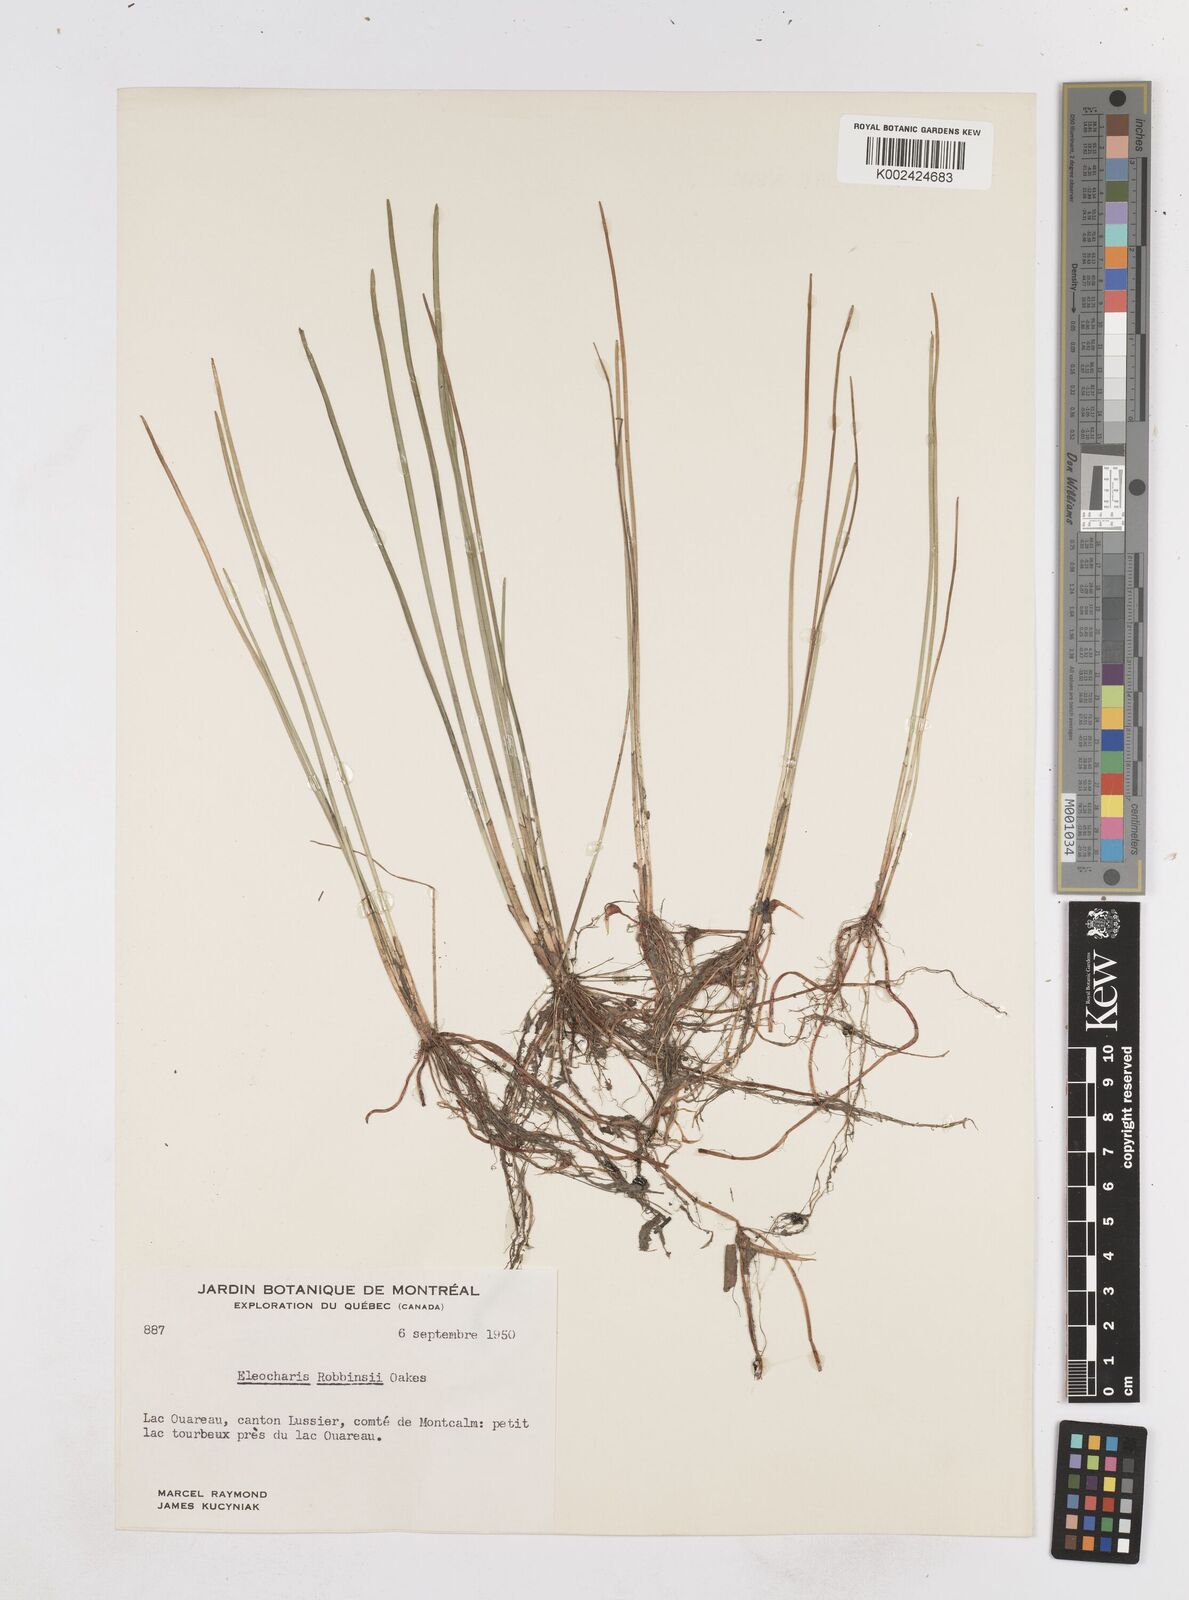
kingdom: Plantae
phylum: Tracheophyta
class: Liliopsida
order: Poales
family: Cyperaceae
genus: Eleocharis
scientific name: Eleocharis robbinsii
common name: Robbins' spikerush
